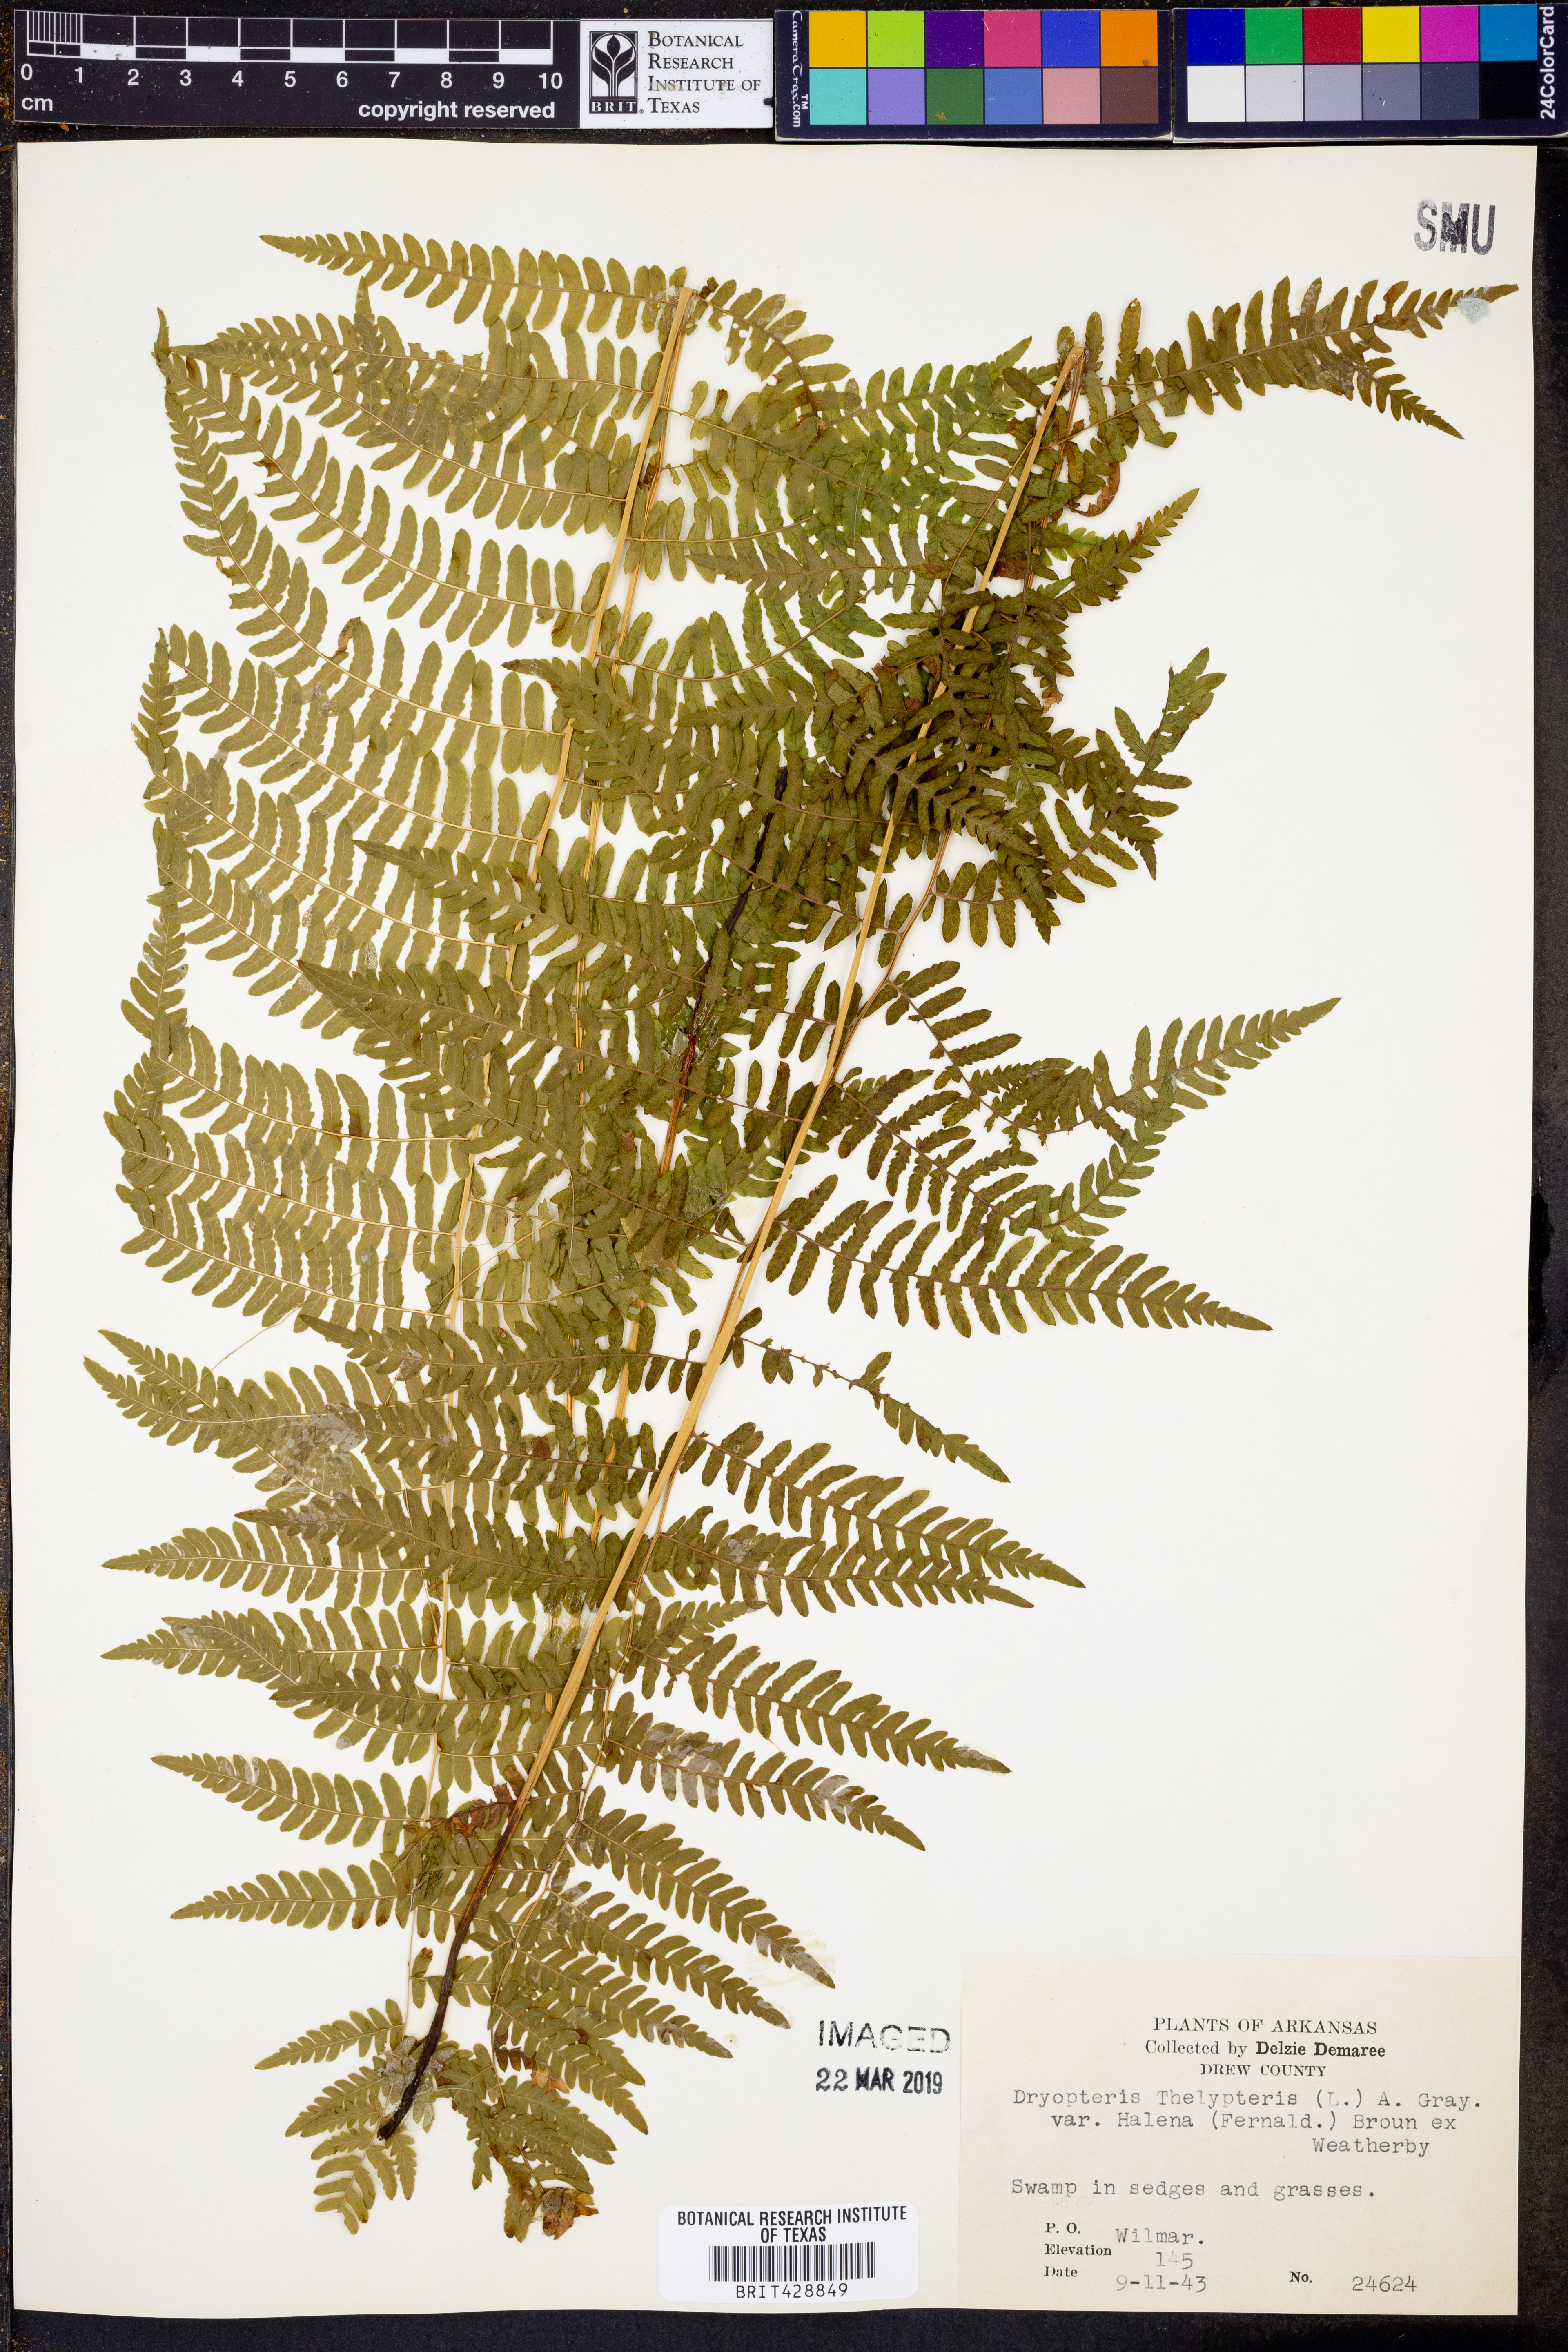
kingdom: Plantae
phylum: Tracheophyta
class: Polypodiopsida
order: Polypodiales
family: Thelypteridaceae
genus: Thelypteris
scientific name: Thelypteris palustris
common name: Marsh fern
